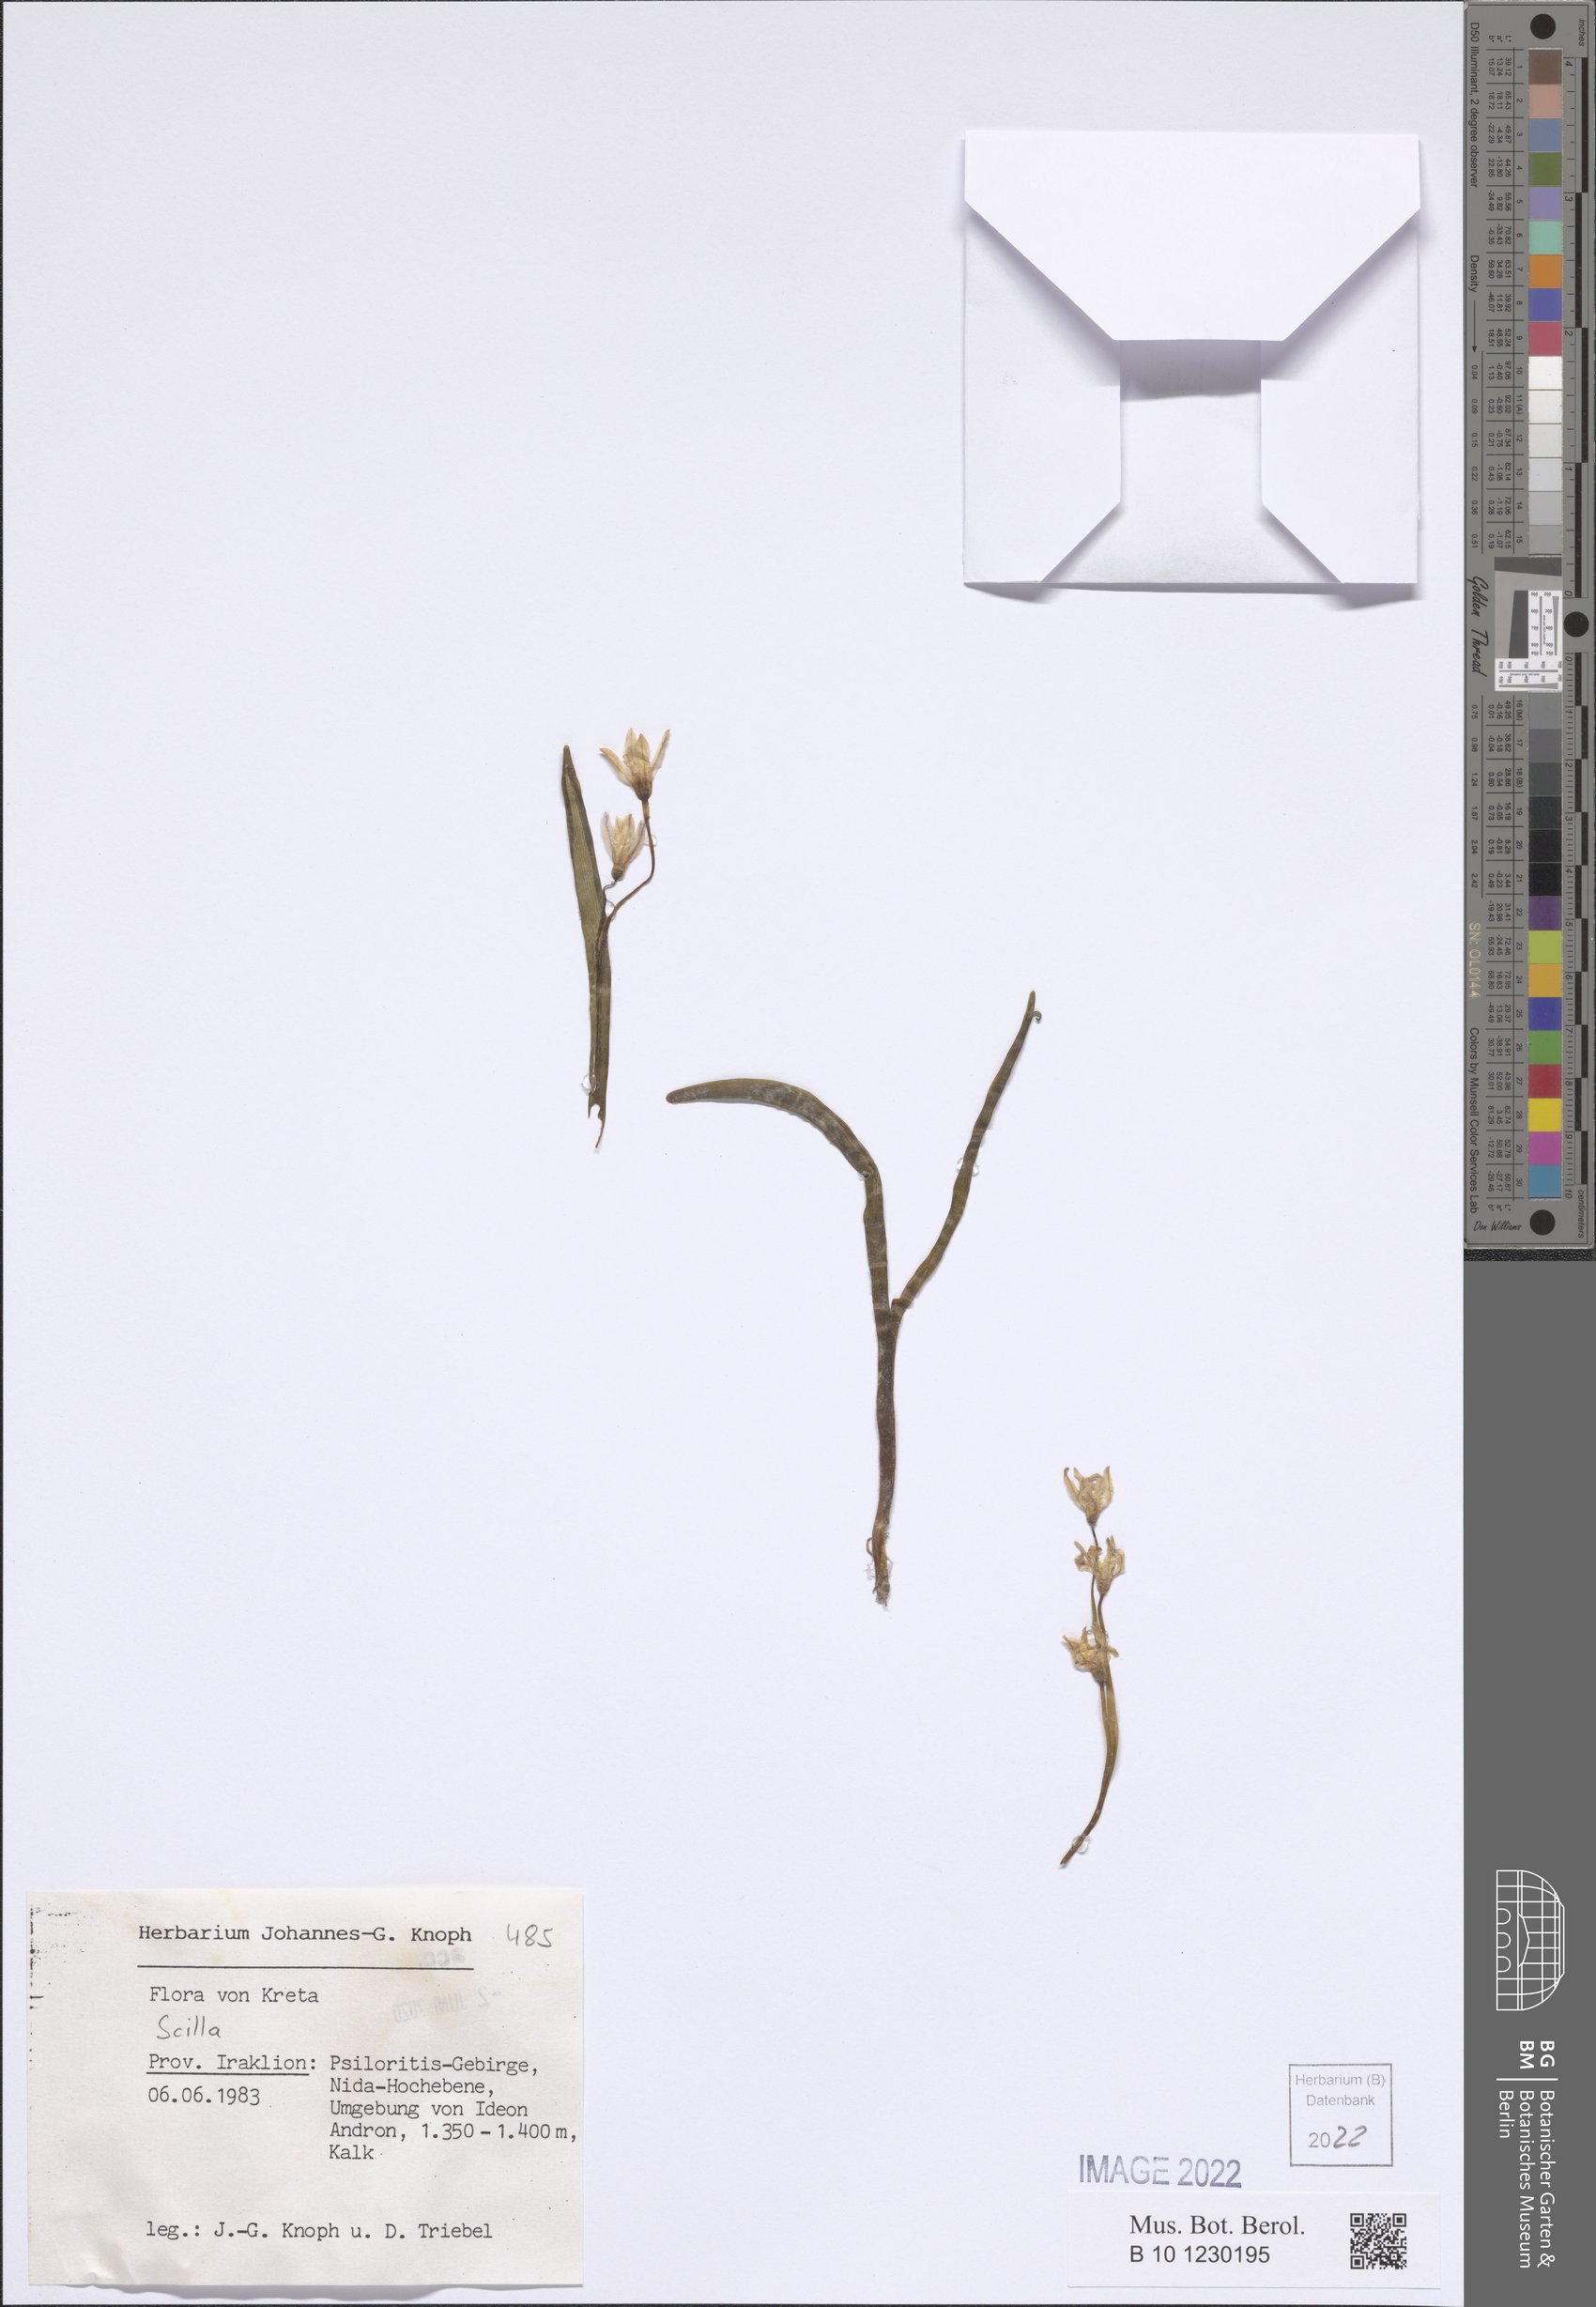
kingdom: Plantae
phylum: Tracheophyta
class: Liliopsida
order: Asparagales
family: Asparagaceae
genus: Scilla
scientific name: Scilla
